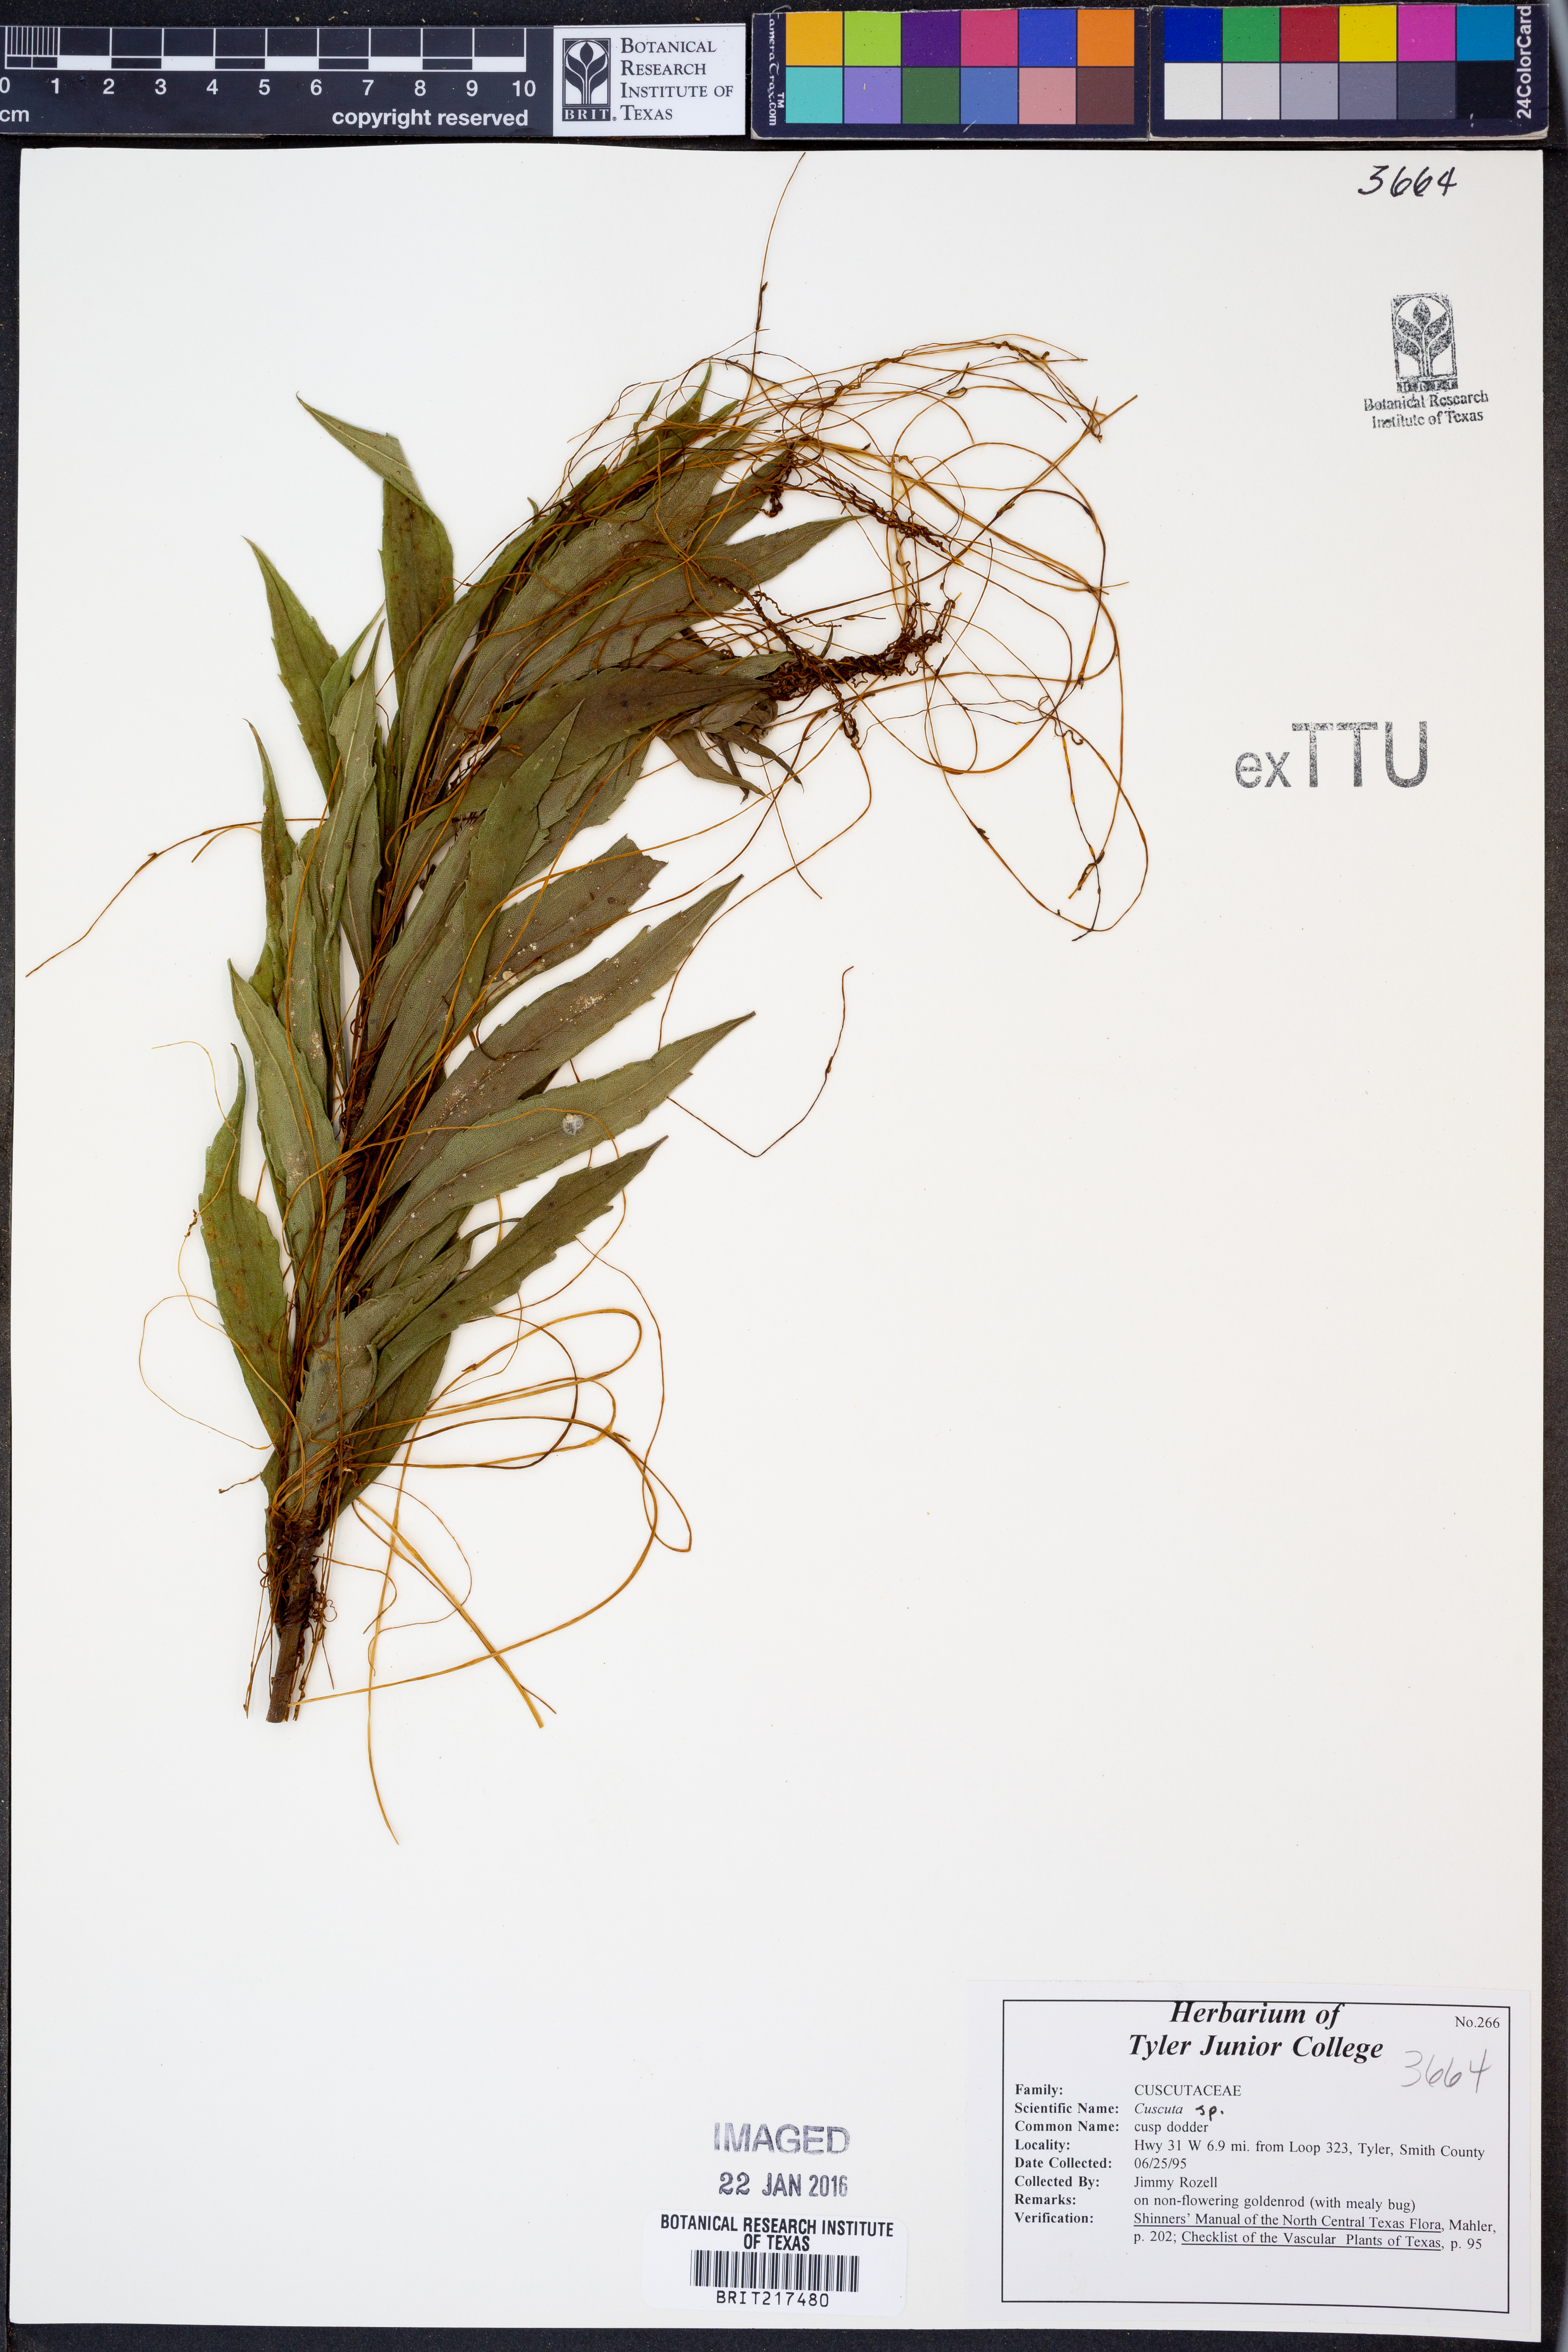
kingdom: Plantae
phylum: Tracheophyta
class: Magnoliopsida
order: Solanales
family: Convolvulaceae
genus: Cuscuta
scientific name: Cuscuta
